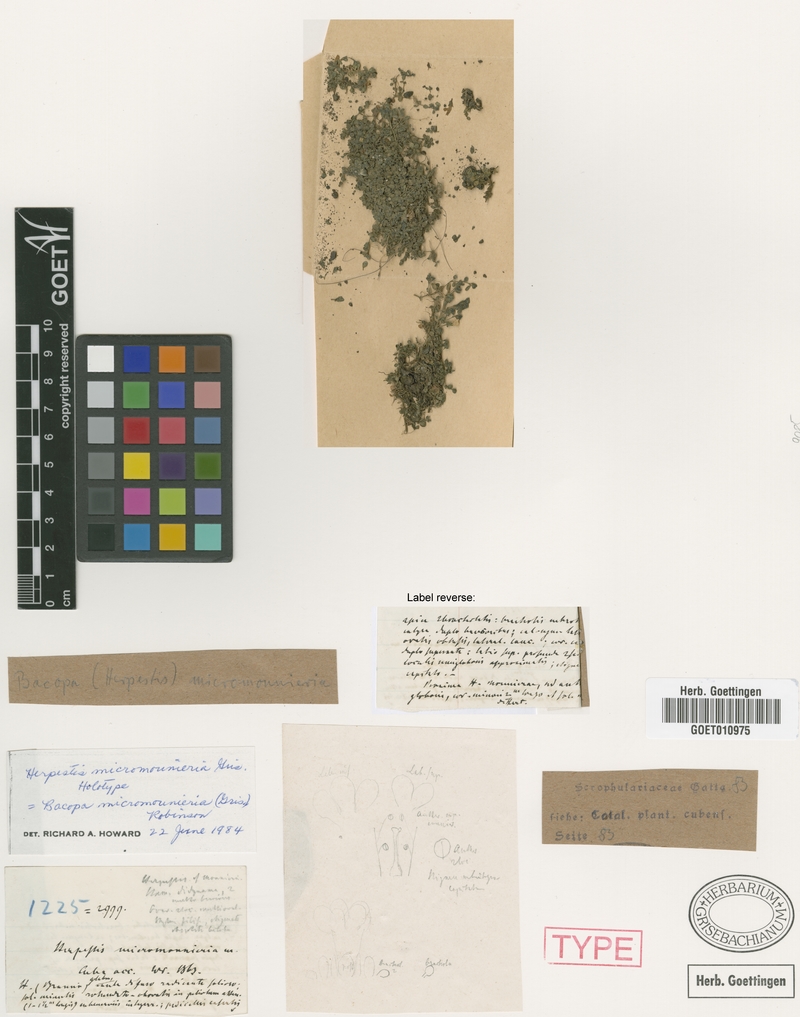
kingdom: Plantae
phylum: Tracheophyta
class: Magnoliopsida
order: Lamiales
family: Plantaginaceae
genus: Bacopa
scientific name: Bacopa micromonnieria
